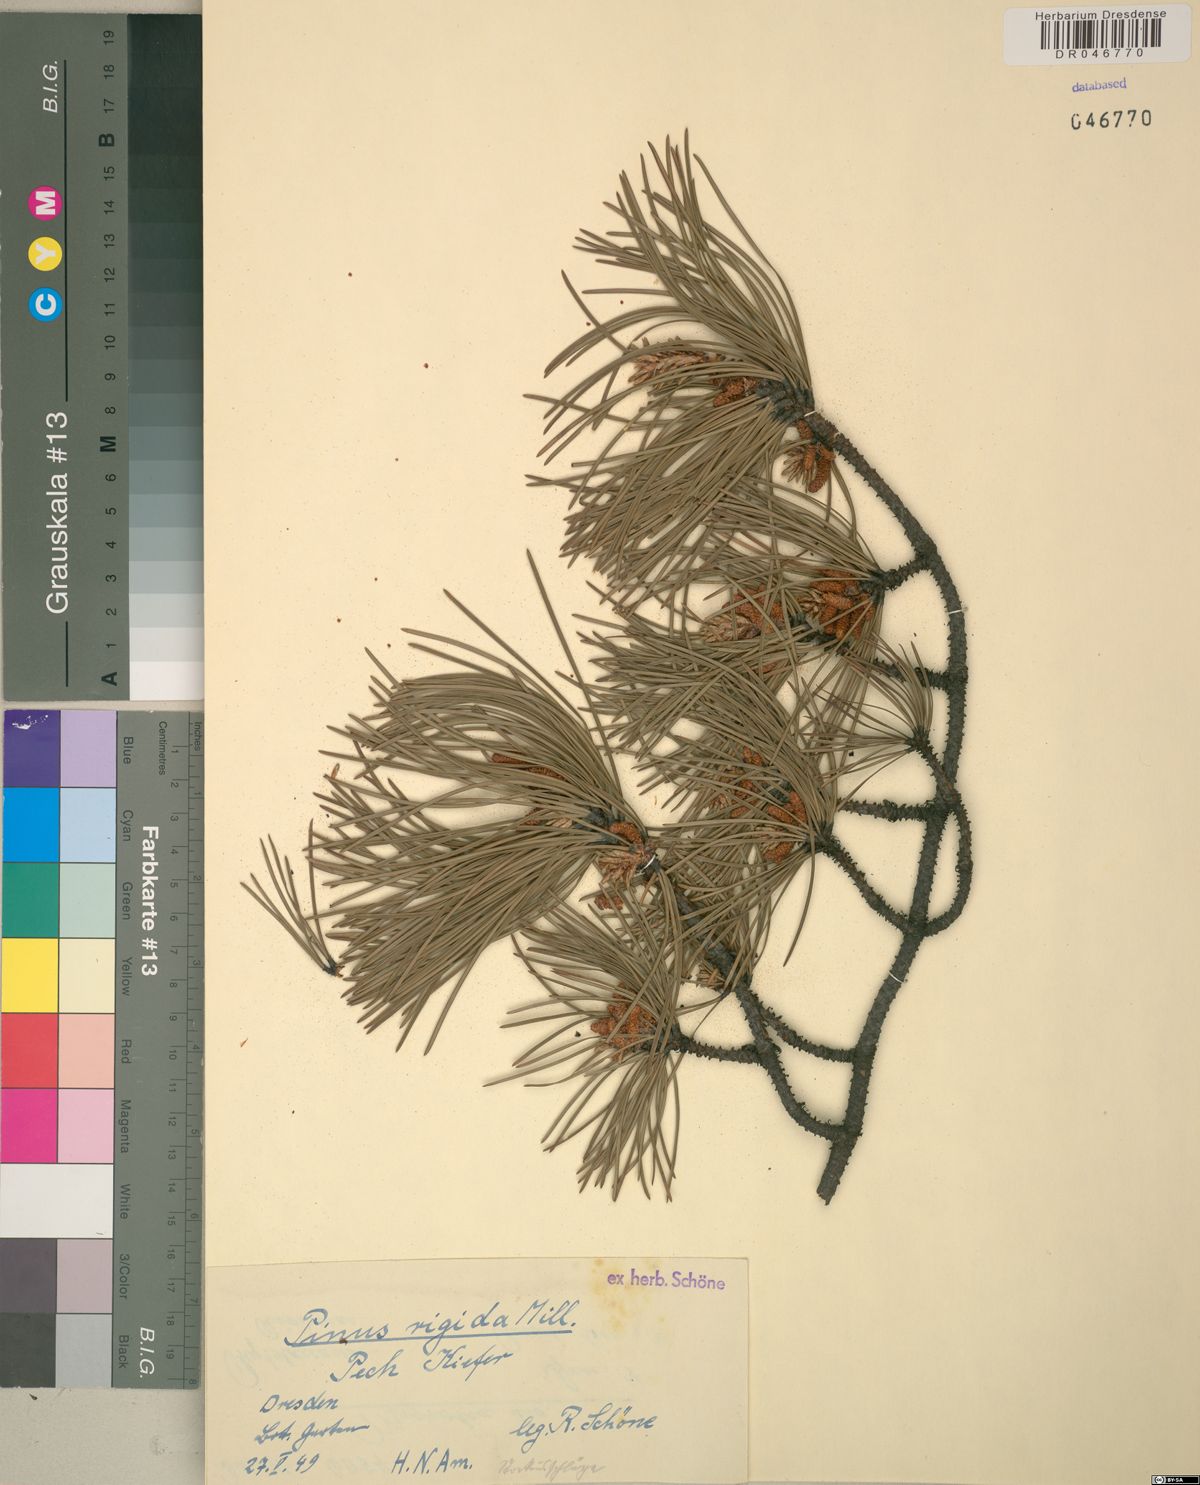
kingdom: Plantae
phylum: Tracheophyta
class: Pinopsida
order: Pinales
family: Pinaceae
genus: Pinus
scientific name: Pinus rigida
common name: Pitch pine
